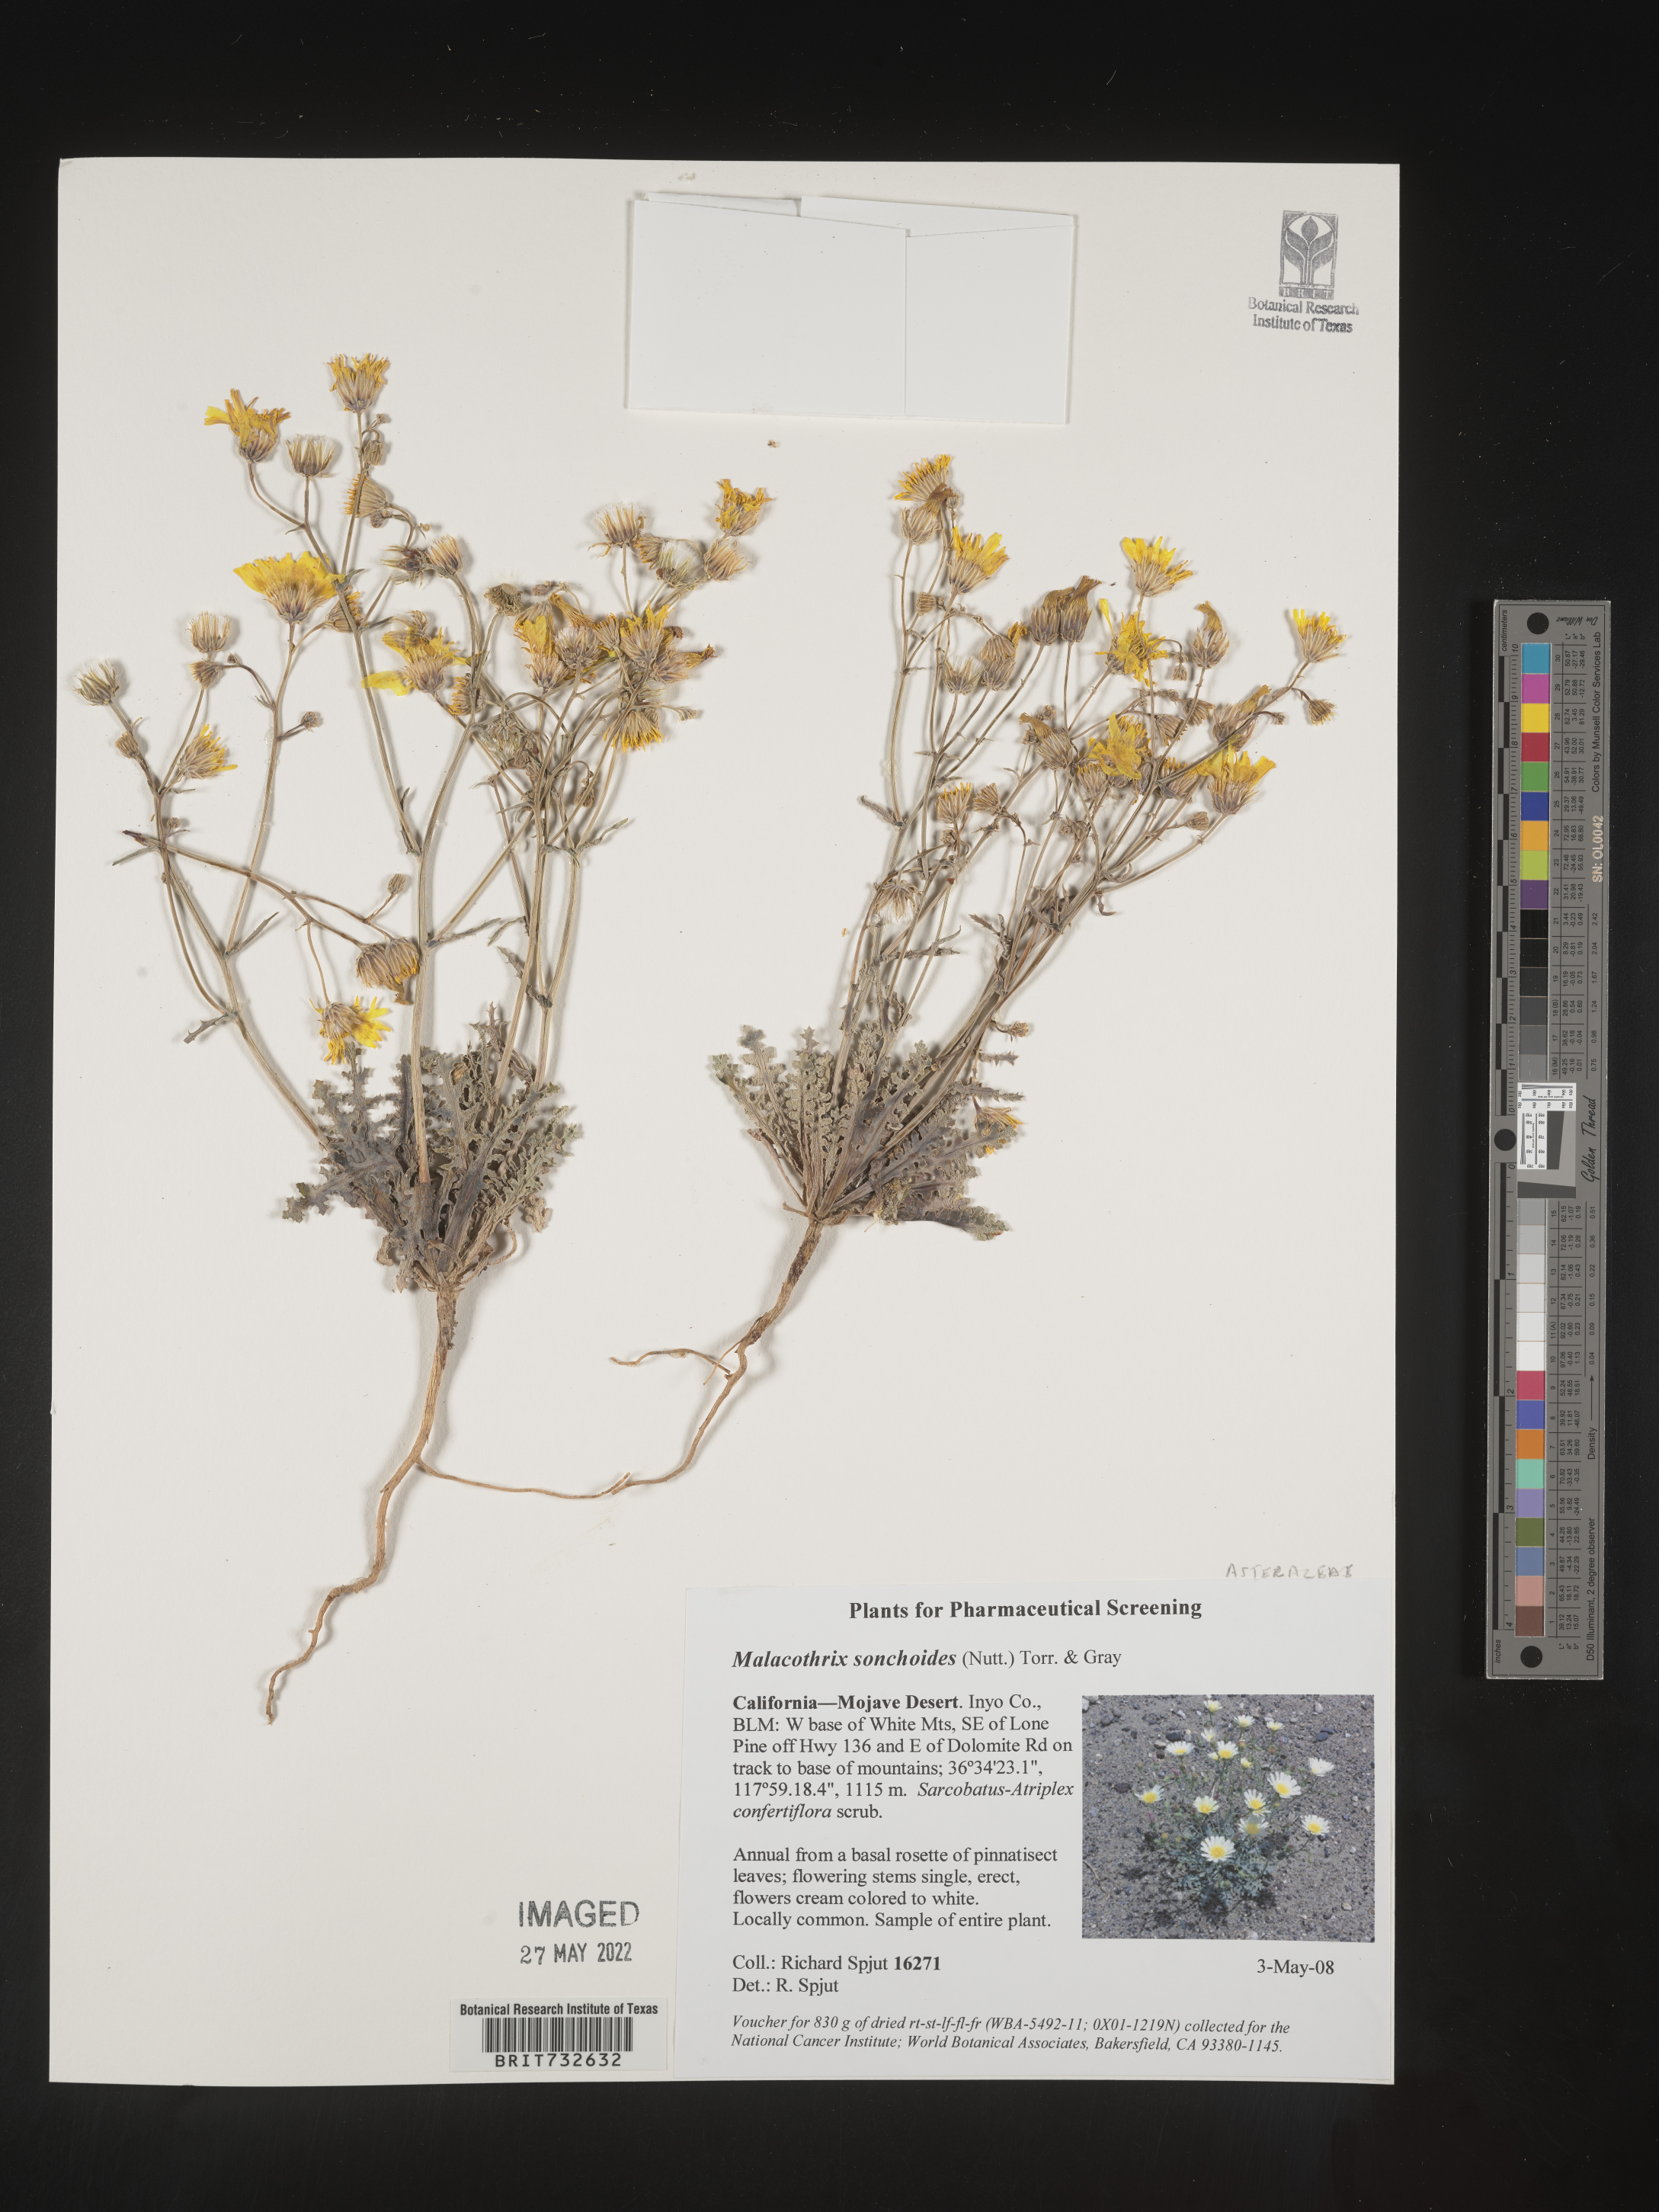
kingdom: Plantae
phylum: Tracheophyta
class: Magnoliopsida
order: Asterales
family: Asteraceae
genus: Malacothrix
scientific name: Malacothrix sonchoides
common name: Sow-thistle desert-dandelion
